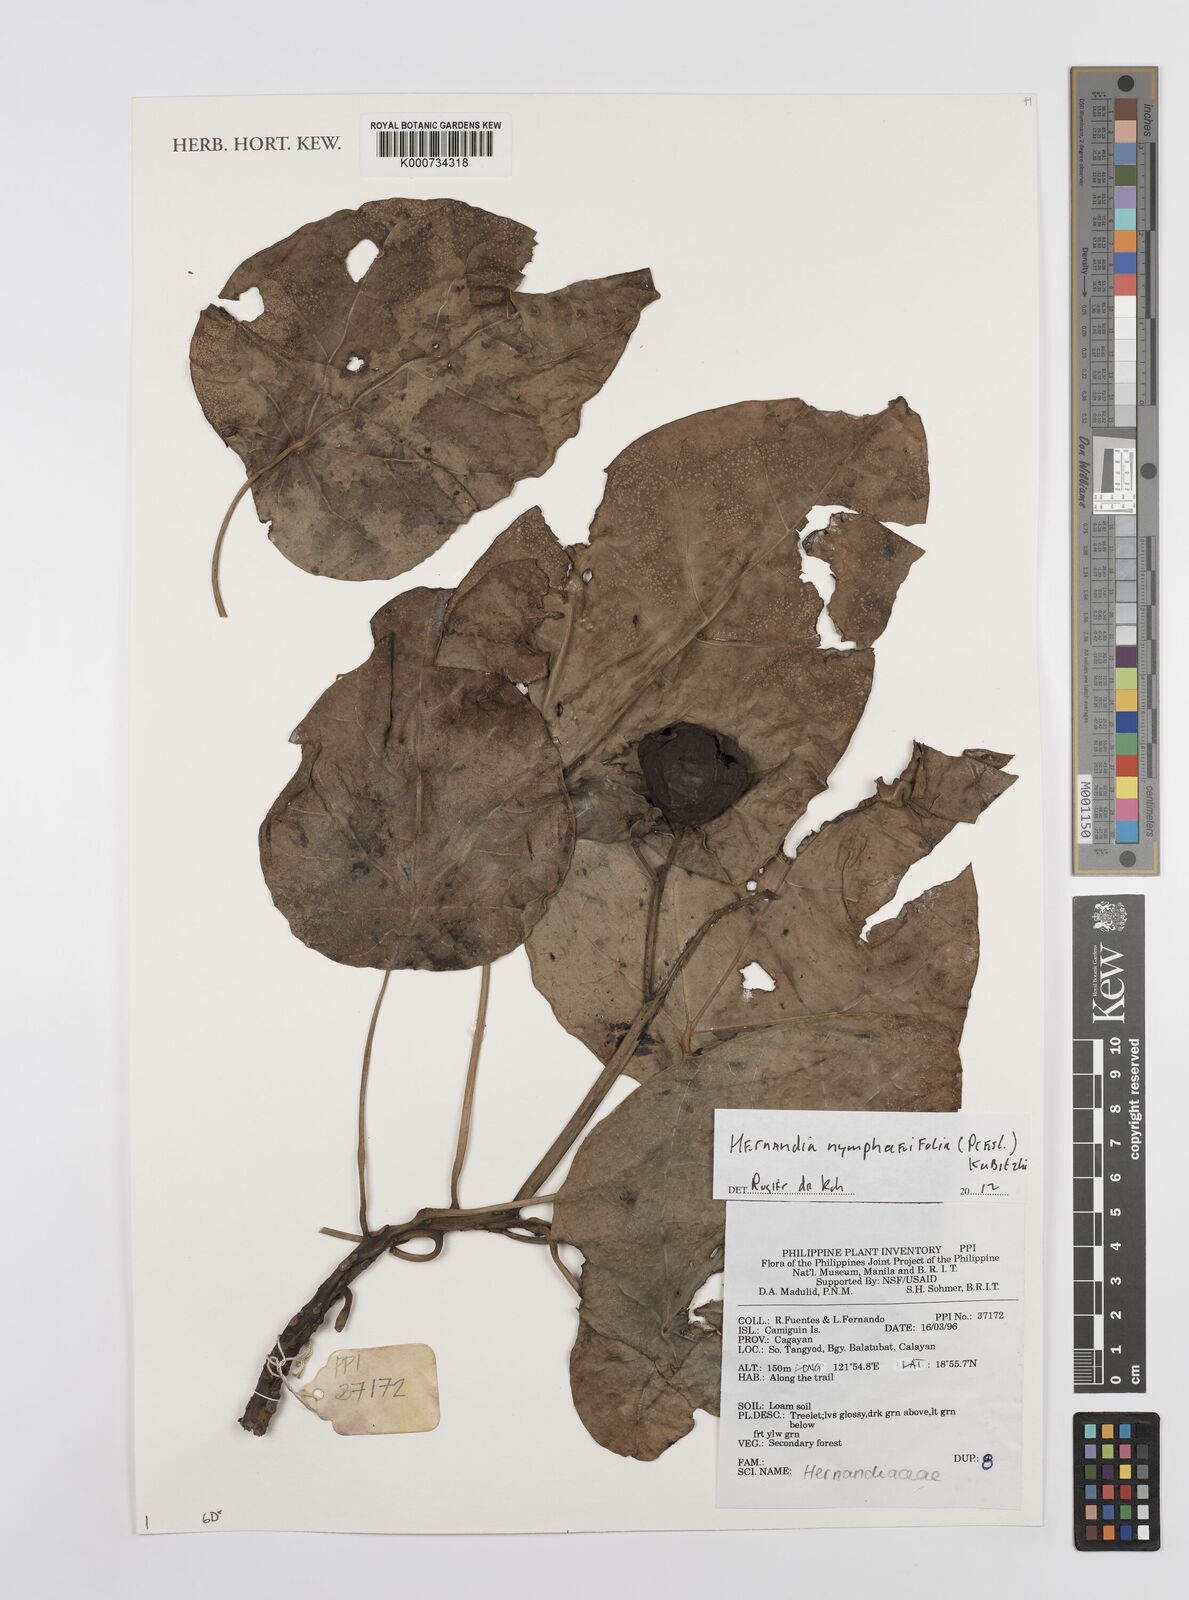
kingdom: Plantae
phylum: Tracheophyta
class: Magnoliopsida
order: Laurales
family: Hernandiaceae
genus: Hernandia
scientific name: Hernandia nymphaeifolia
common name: Sea hearse
